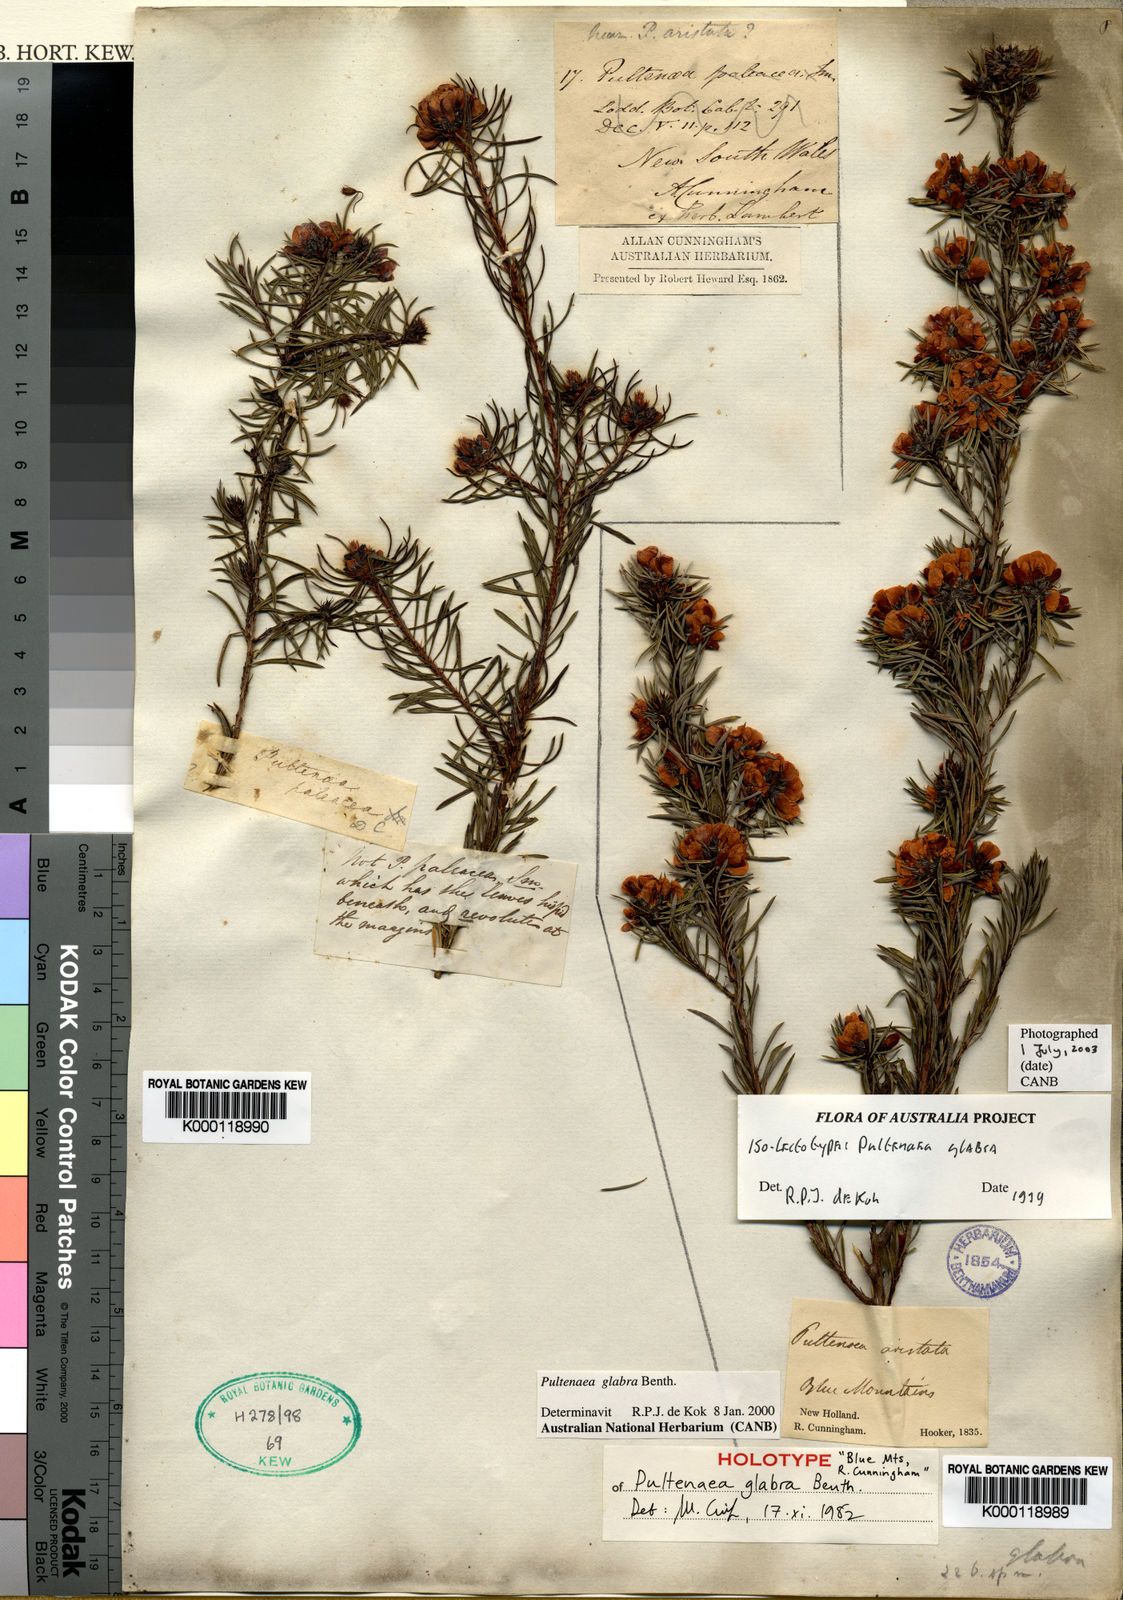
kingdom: Plantae
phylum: Tracheophyta
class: Magnoliopsida
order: Fabales
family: Fabaceae
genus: Pultenaea
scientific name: Pultenaea glabra
